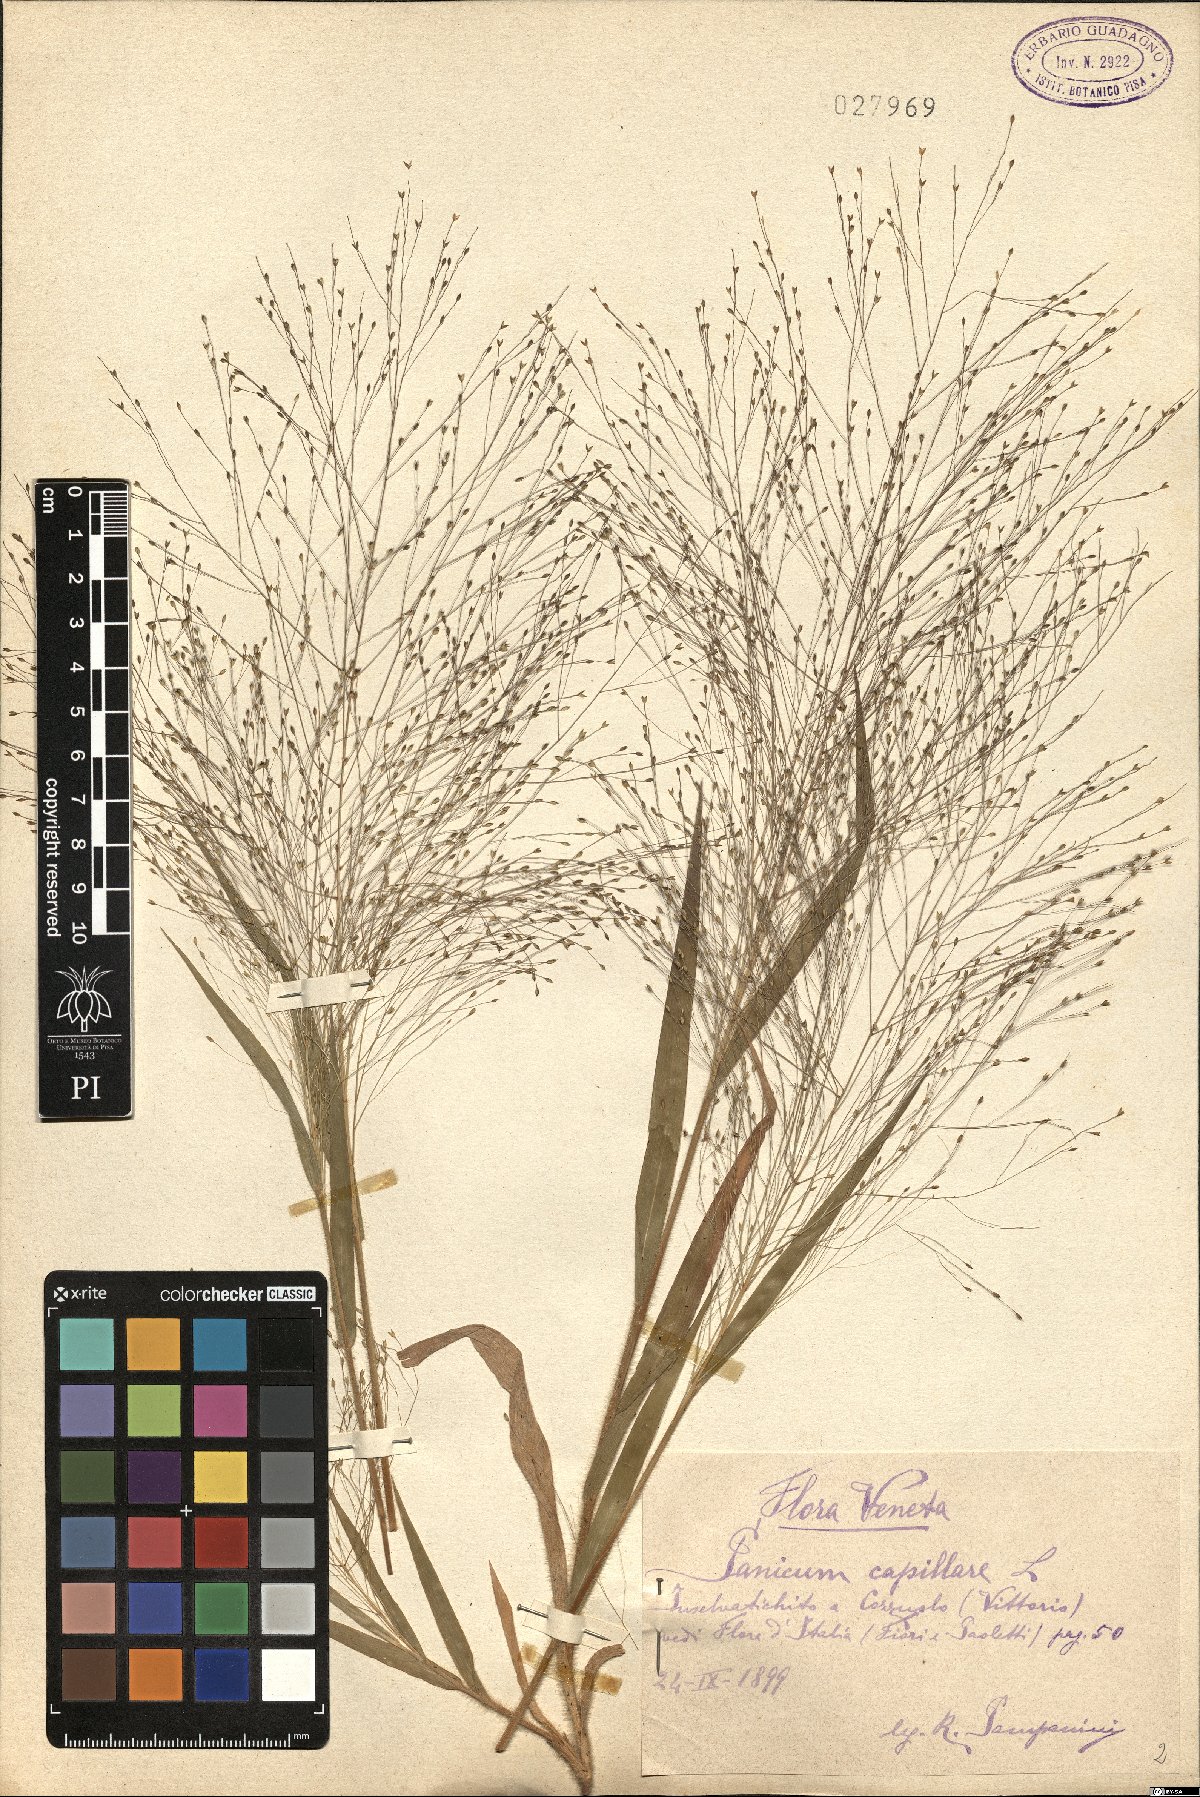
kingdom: Plantae
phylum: Tracheophyta
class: Liliopsida
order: Poales
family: Poaceae
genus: Panicum
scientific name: Panicum capillare
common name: Witch-grass
